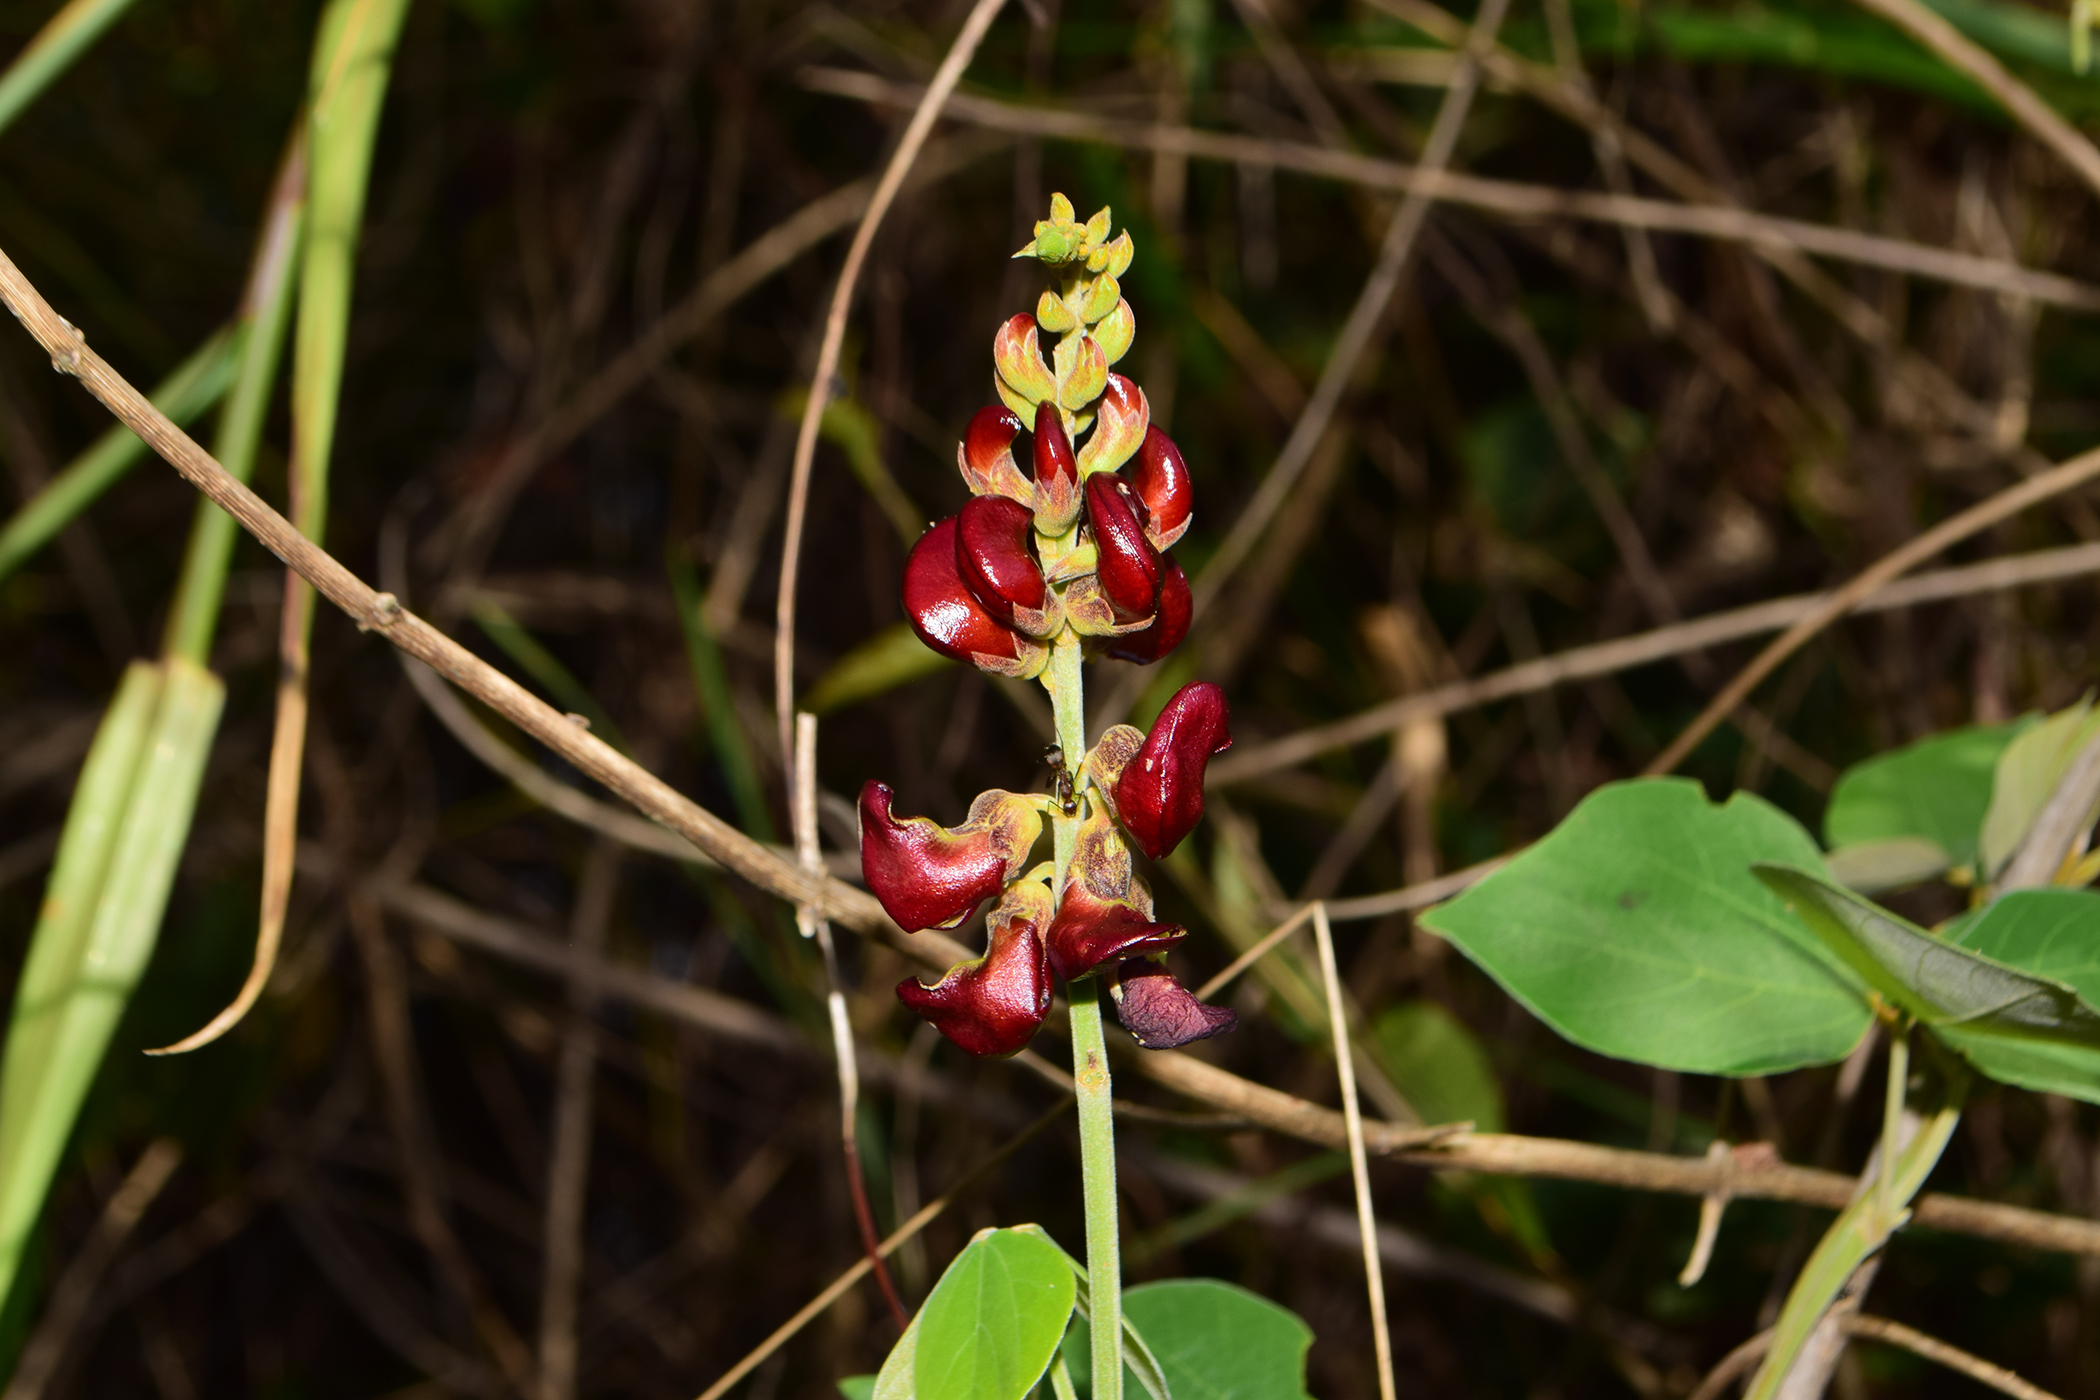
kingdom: Plantae
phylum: Tracheophyta
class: Magnoliopsida
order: Fabales
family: Fabaceae
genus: Dunbaria
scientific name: Dunbaria incana
